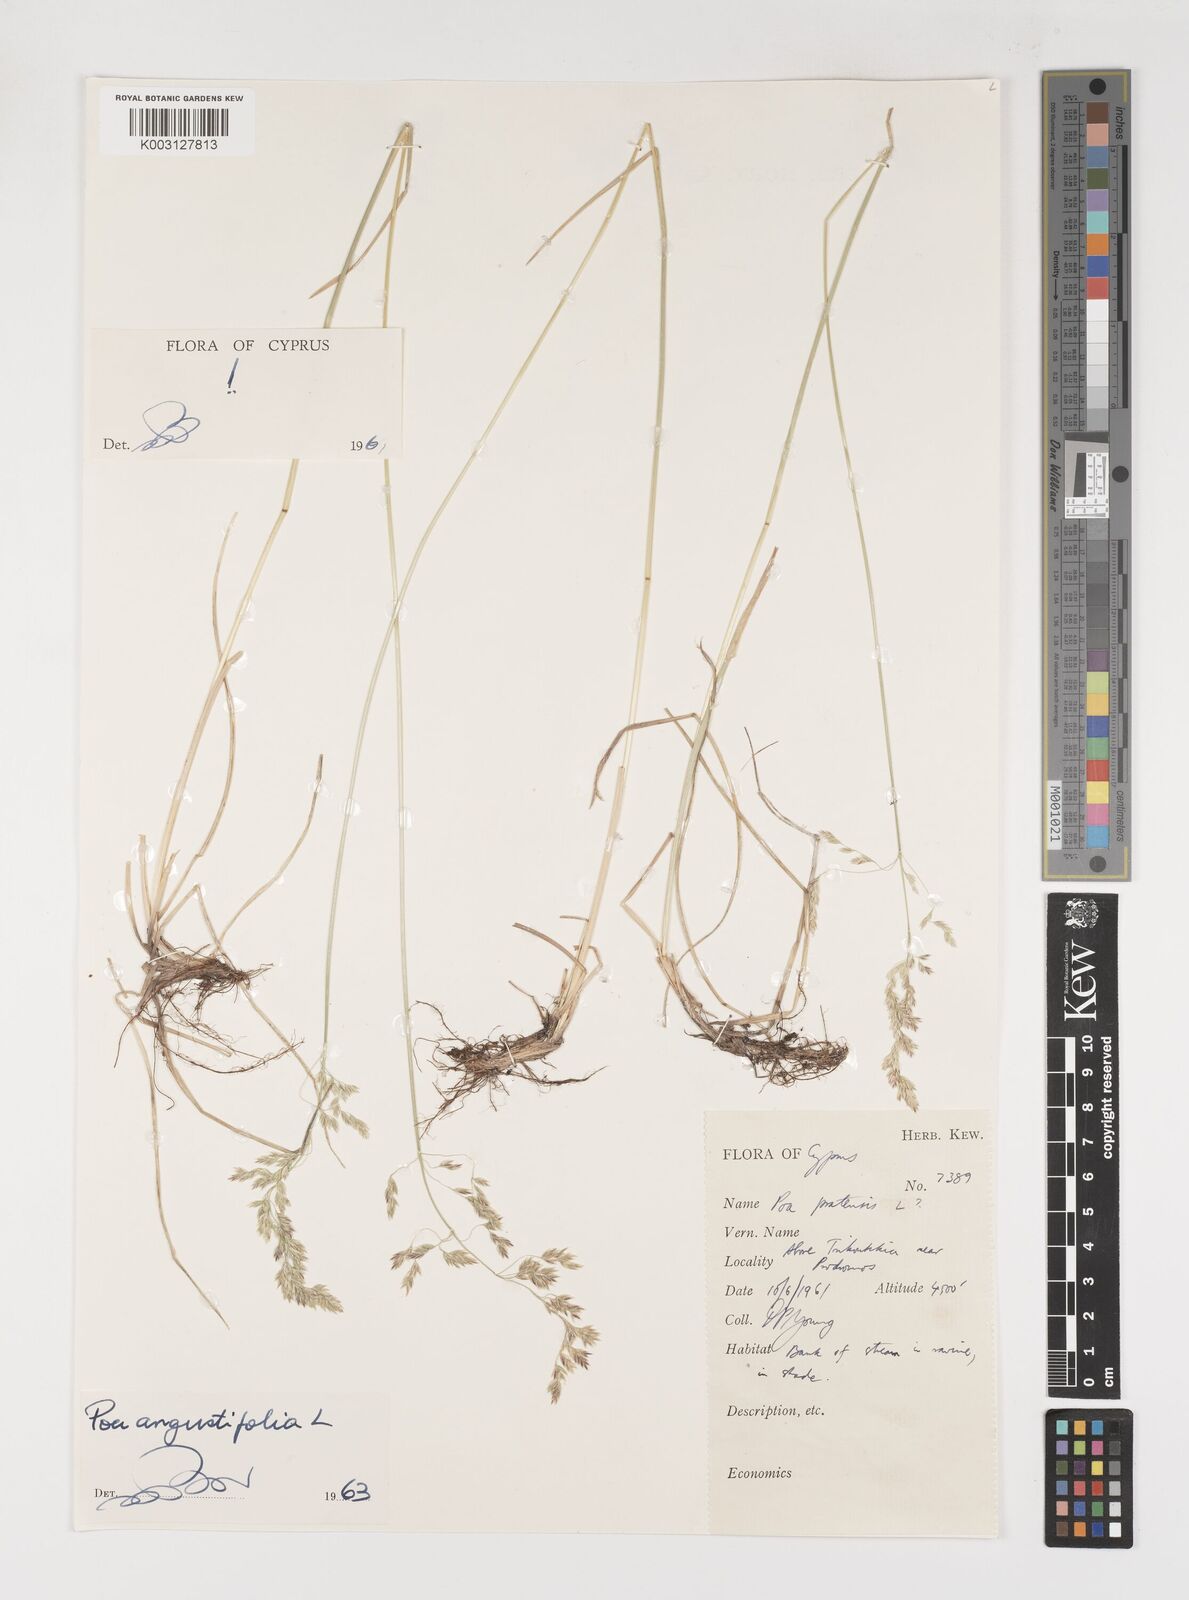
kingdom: Plantae
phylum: Tracheophyta
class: Liliopsida
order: Poales
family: Poaceae
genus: Poa
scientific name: Poa angustifolia
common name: Narrow-leaved meadow-grass
